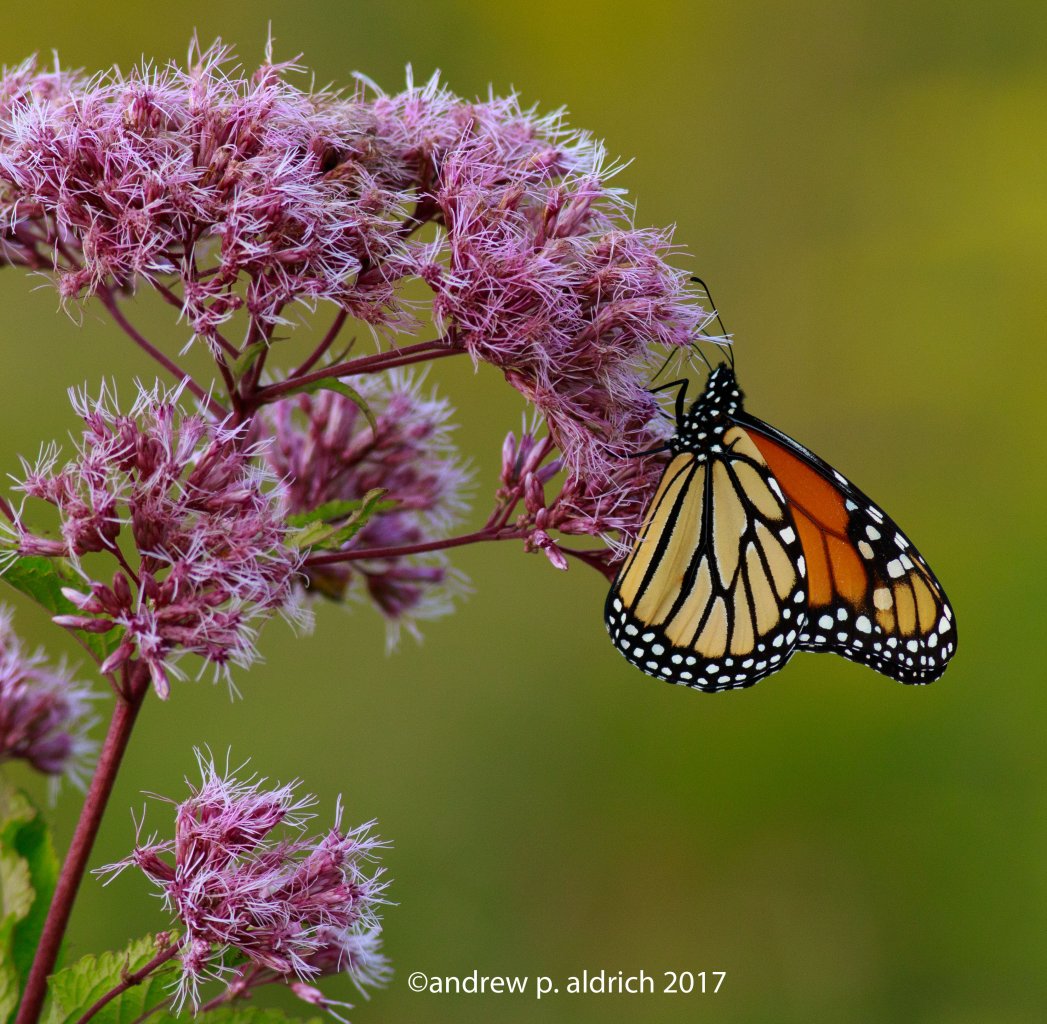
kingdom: Animalia
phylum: Arthropoda
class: Insecta
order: Lepidoptera
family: Nymphalidae
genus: Danaus
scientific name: Danaus plexippus
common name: Monarch
